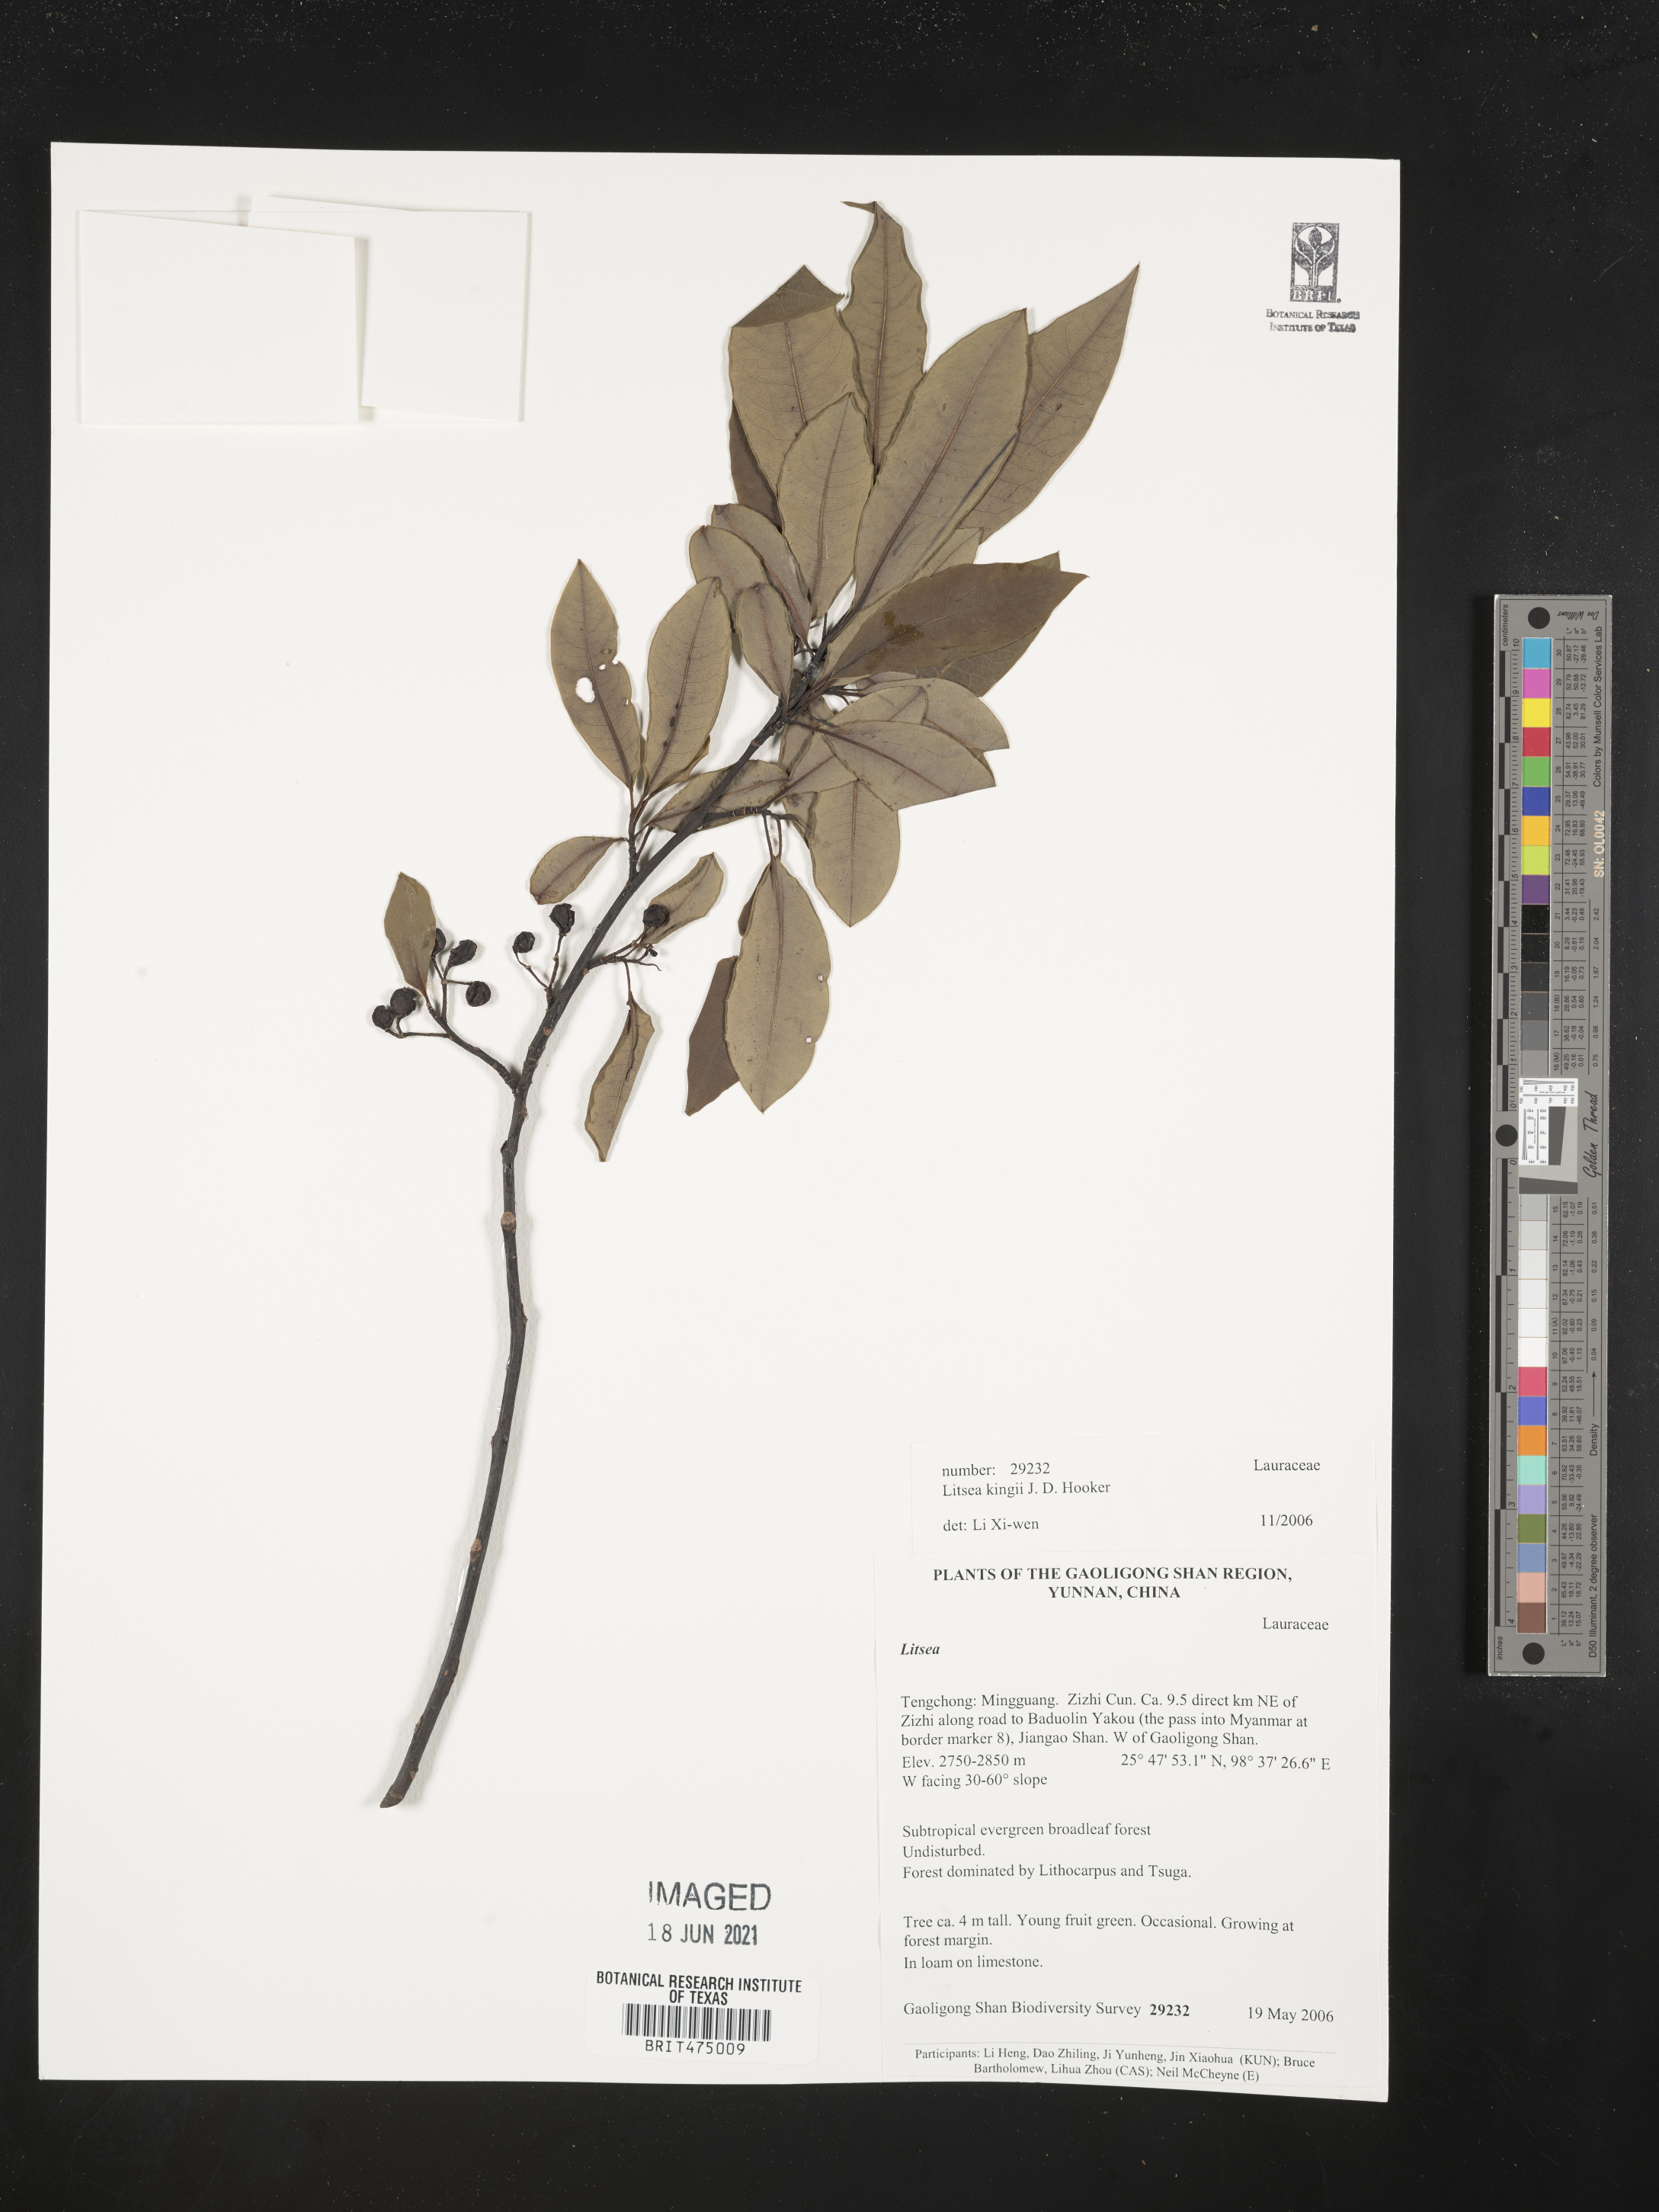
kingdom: Plantae
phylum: Tracheophyta
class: Magnoliopsida
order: Laurales
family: Lauraceae
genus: Litsea
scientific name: Litsea kingii
